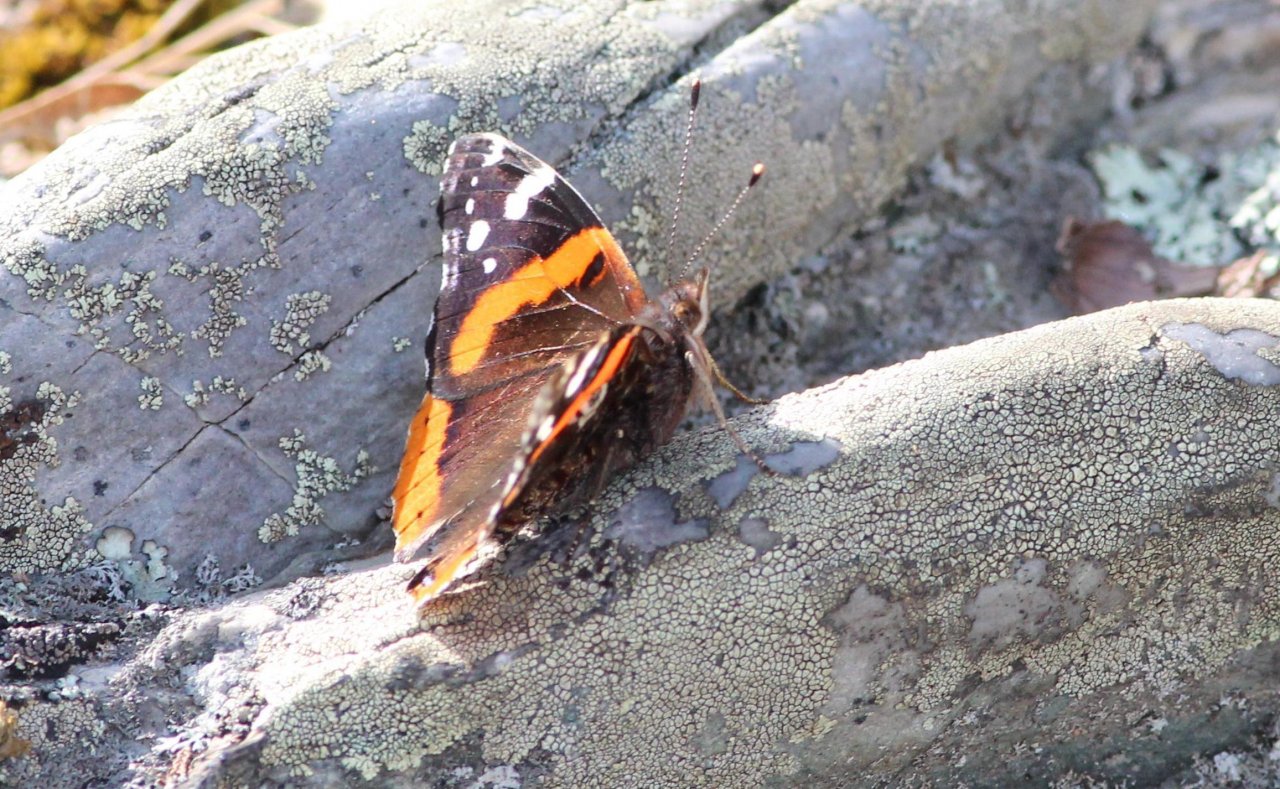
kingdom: Animalia
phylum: Arthropoda
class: Insecta
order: Lepidoptera
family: Nymphalidae
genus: Vanessa
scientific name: Vanessa atalanta
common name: Red Admiral
